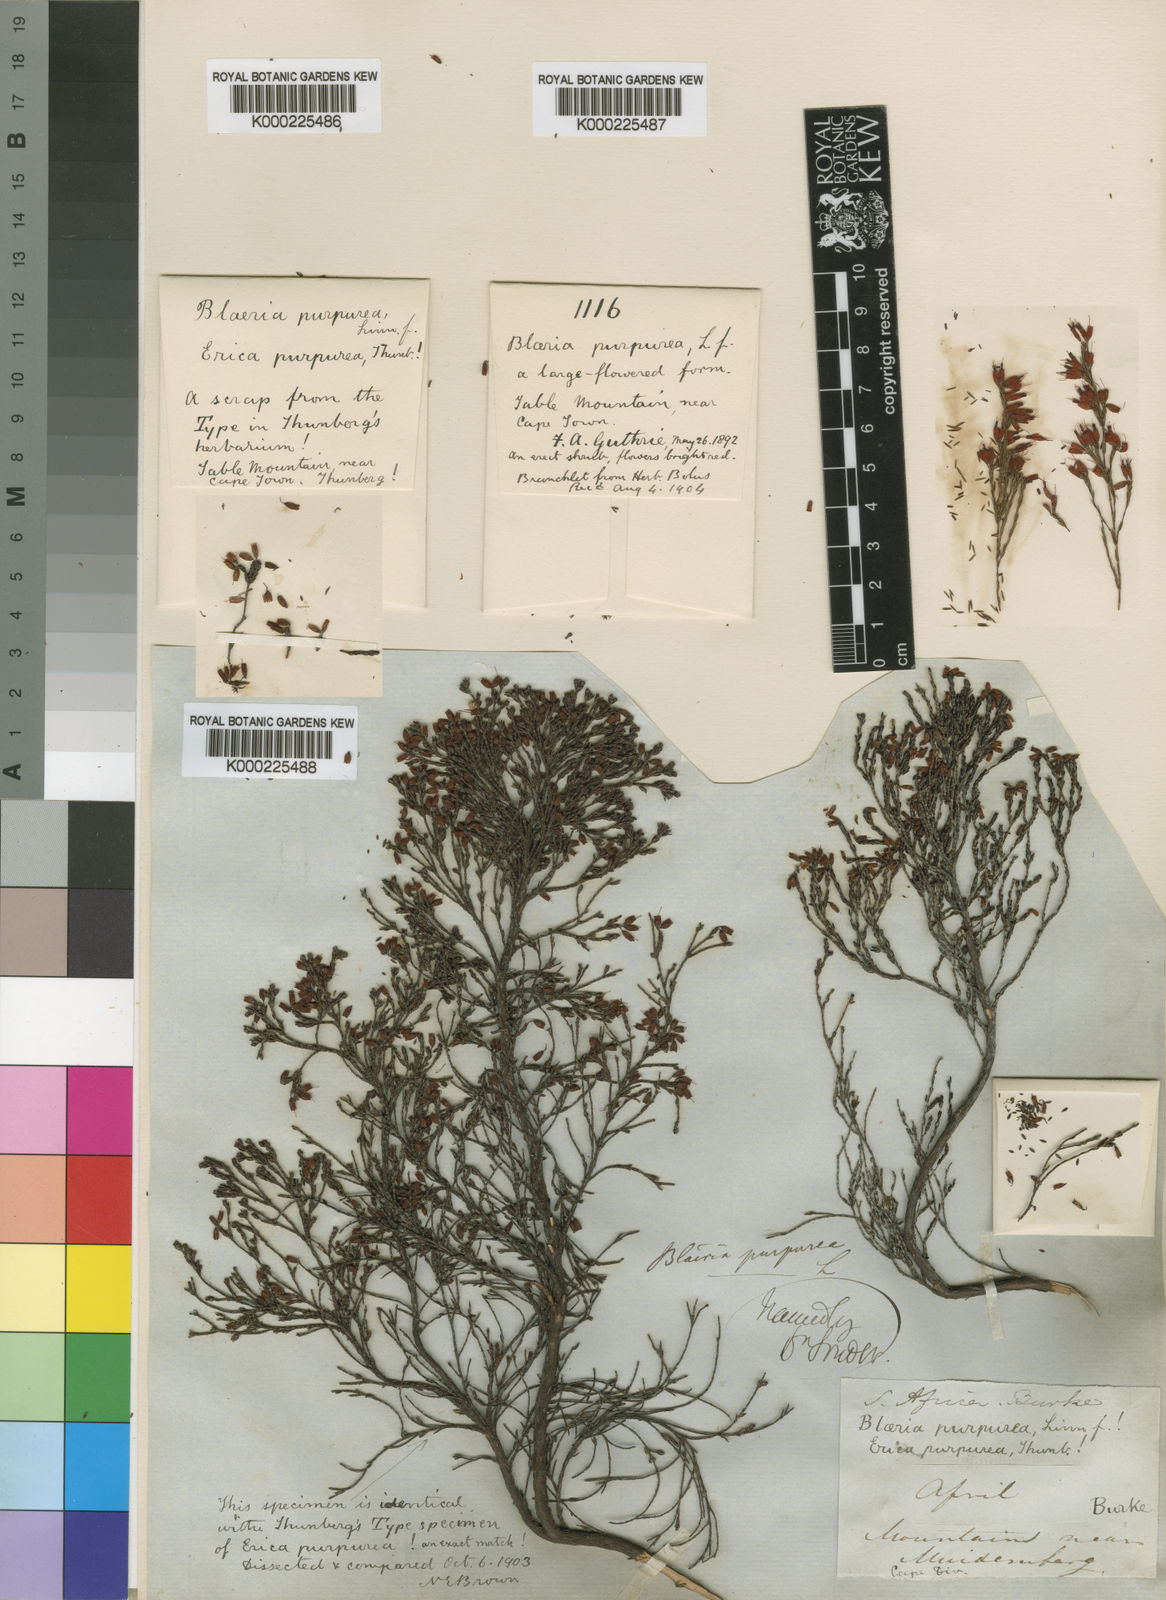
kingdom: Plantae
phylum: Tracheophyta
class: Magnoliopsida
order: Ericales
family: Ericaceae
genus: Erica
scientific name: Erica equisetifolia
